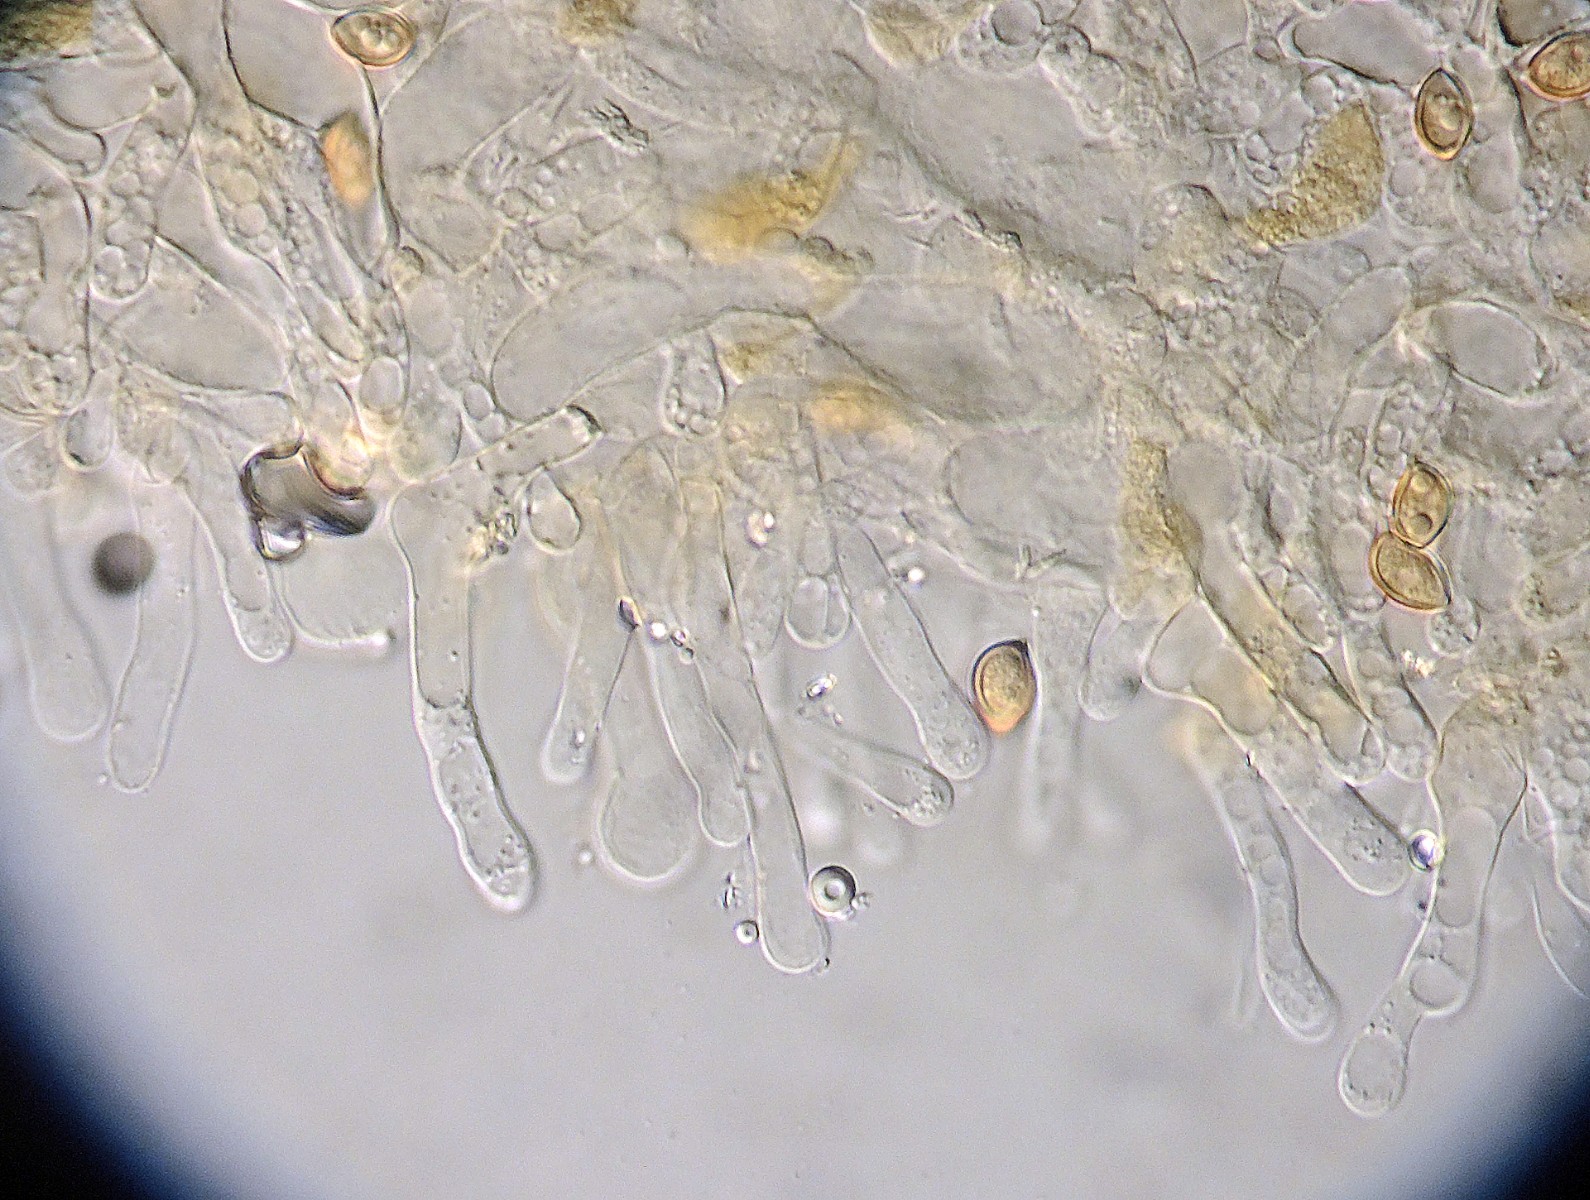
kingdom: Fungi
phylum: Basidiomycota
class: Agaricomycetes
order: Agaricales
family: Hymenogastraceae
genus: Galerina
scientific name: Galerina hypnorum
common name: mos-hjelmhat
